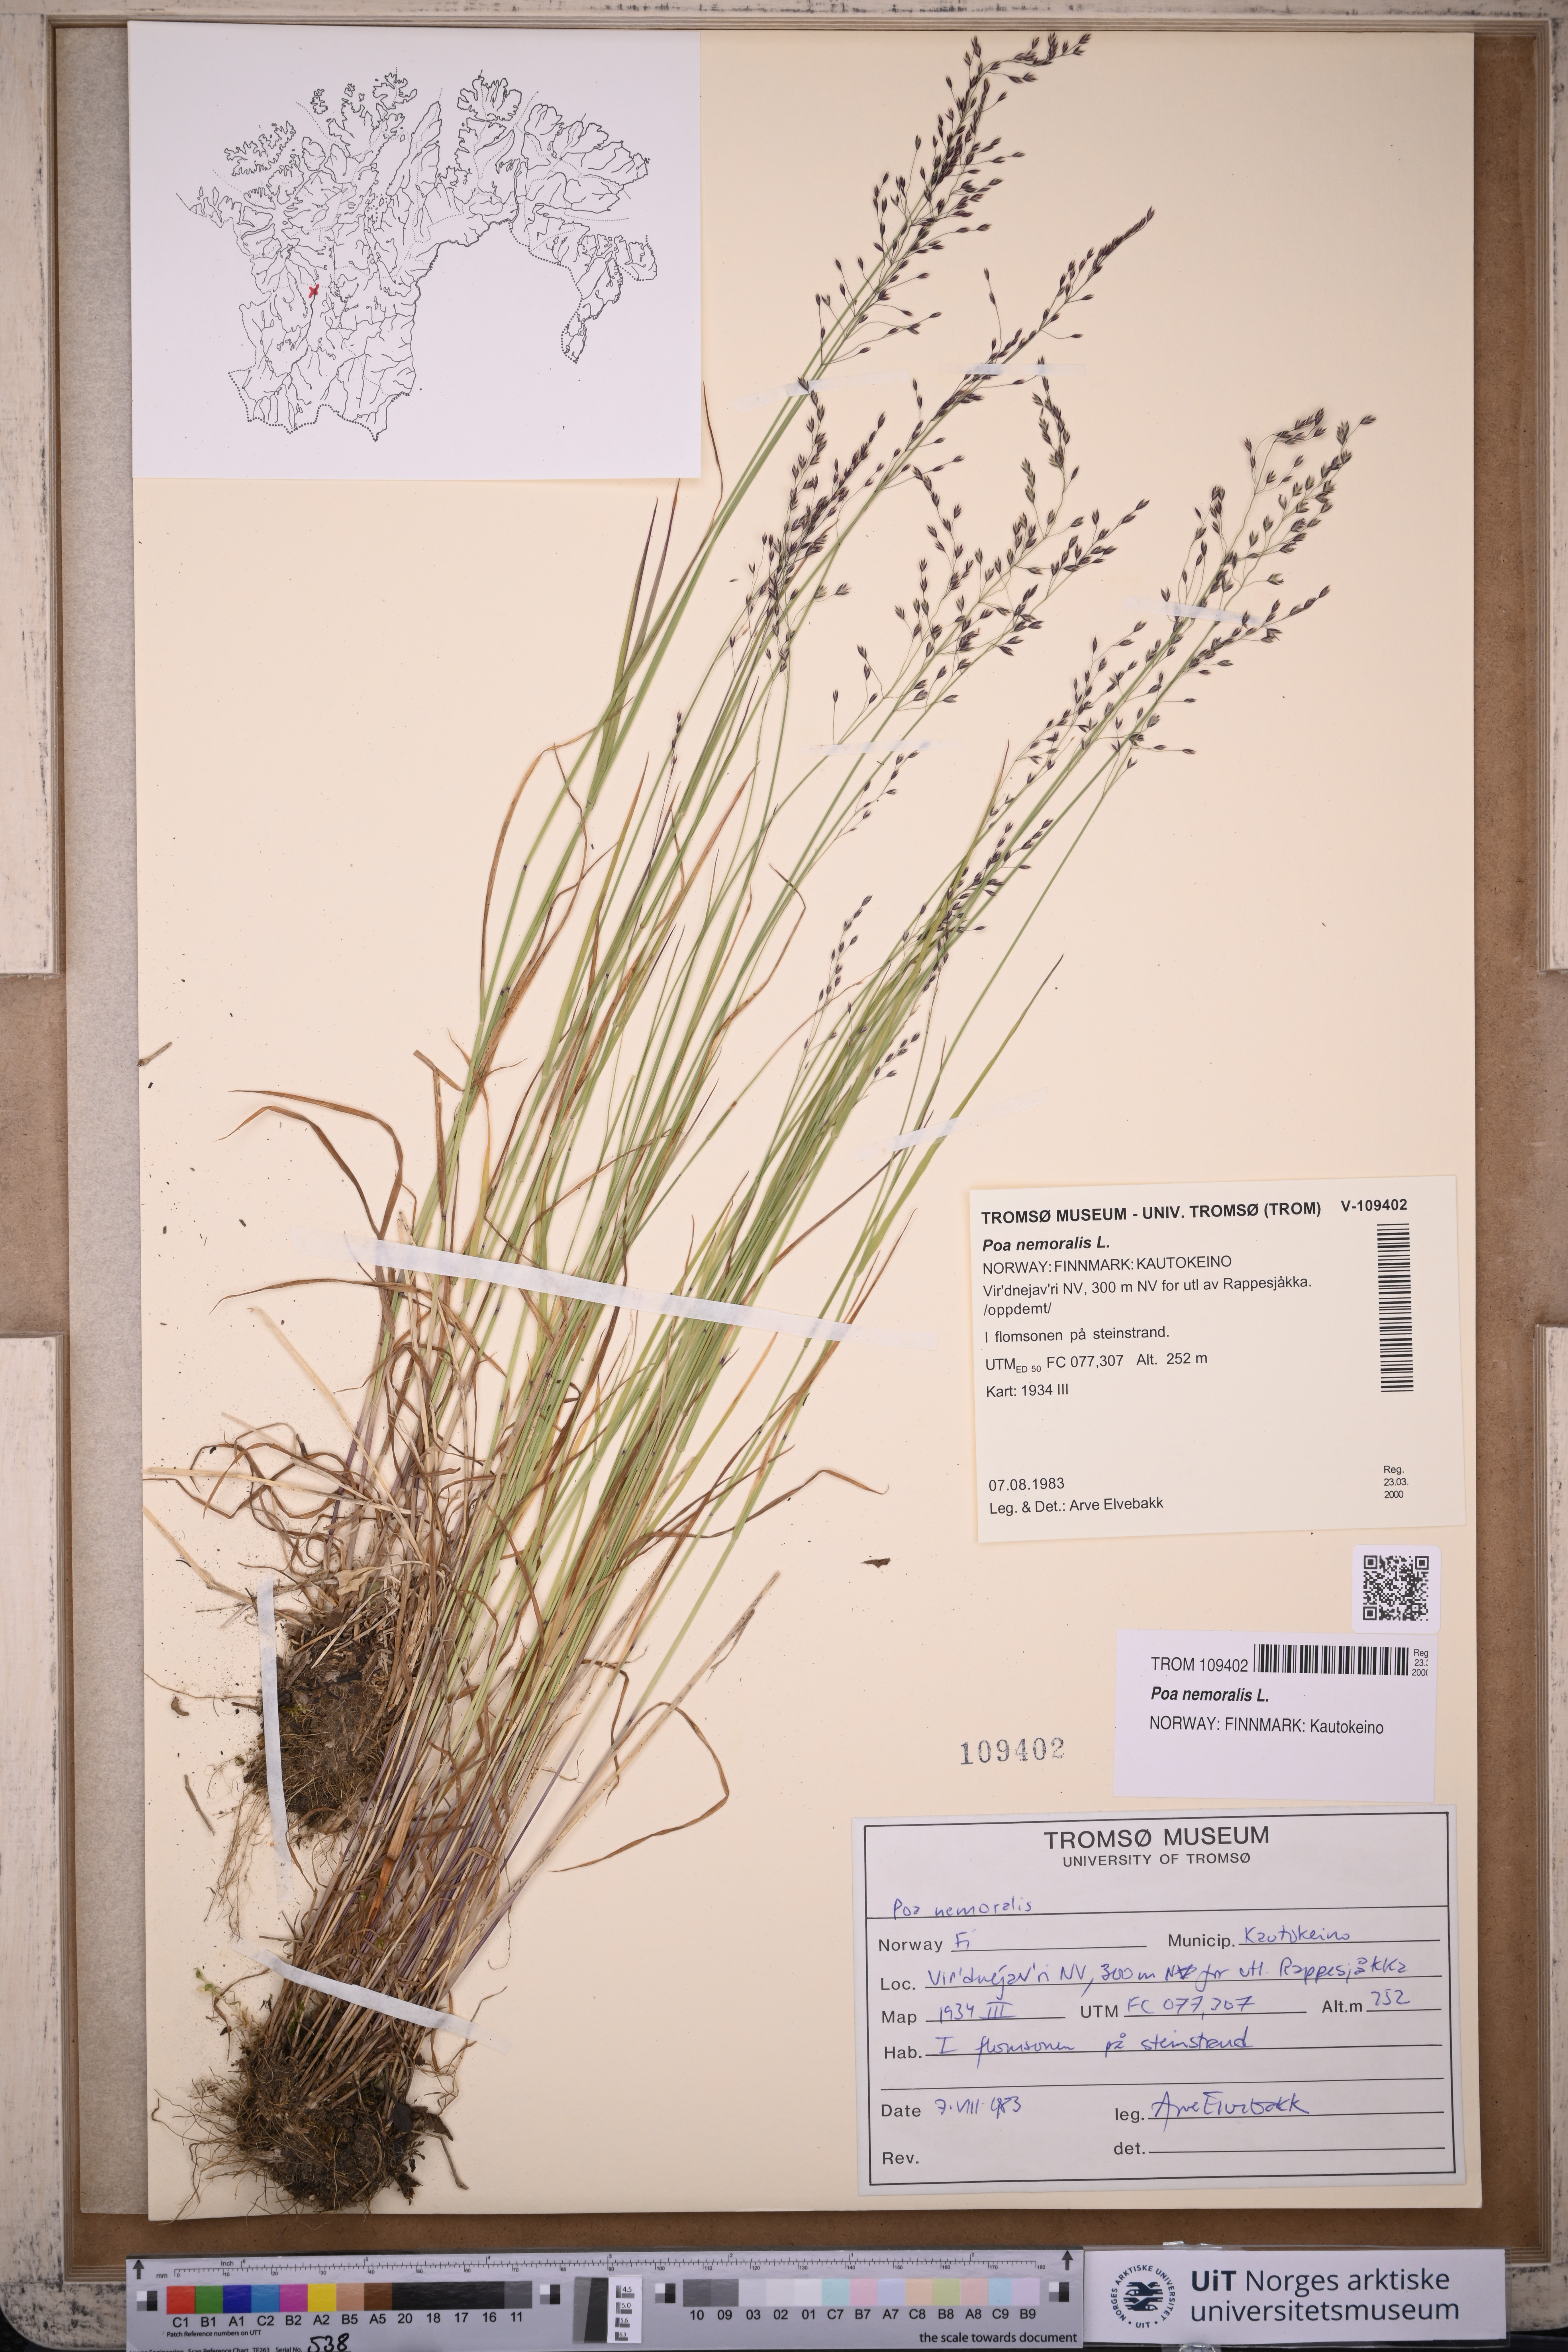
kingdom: Plantae
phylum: Tracheophyta
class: Liliopsida
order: Poales
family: Poaceae
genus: Poa
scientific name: Poa nemoralis
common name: Wood bluegrass
